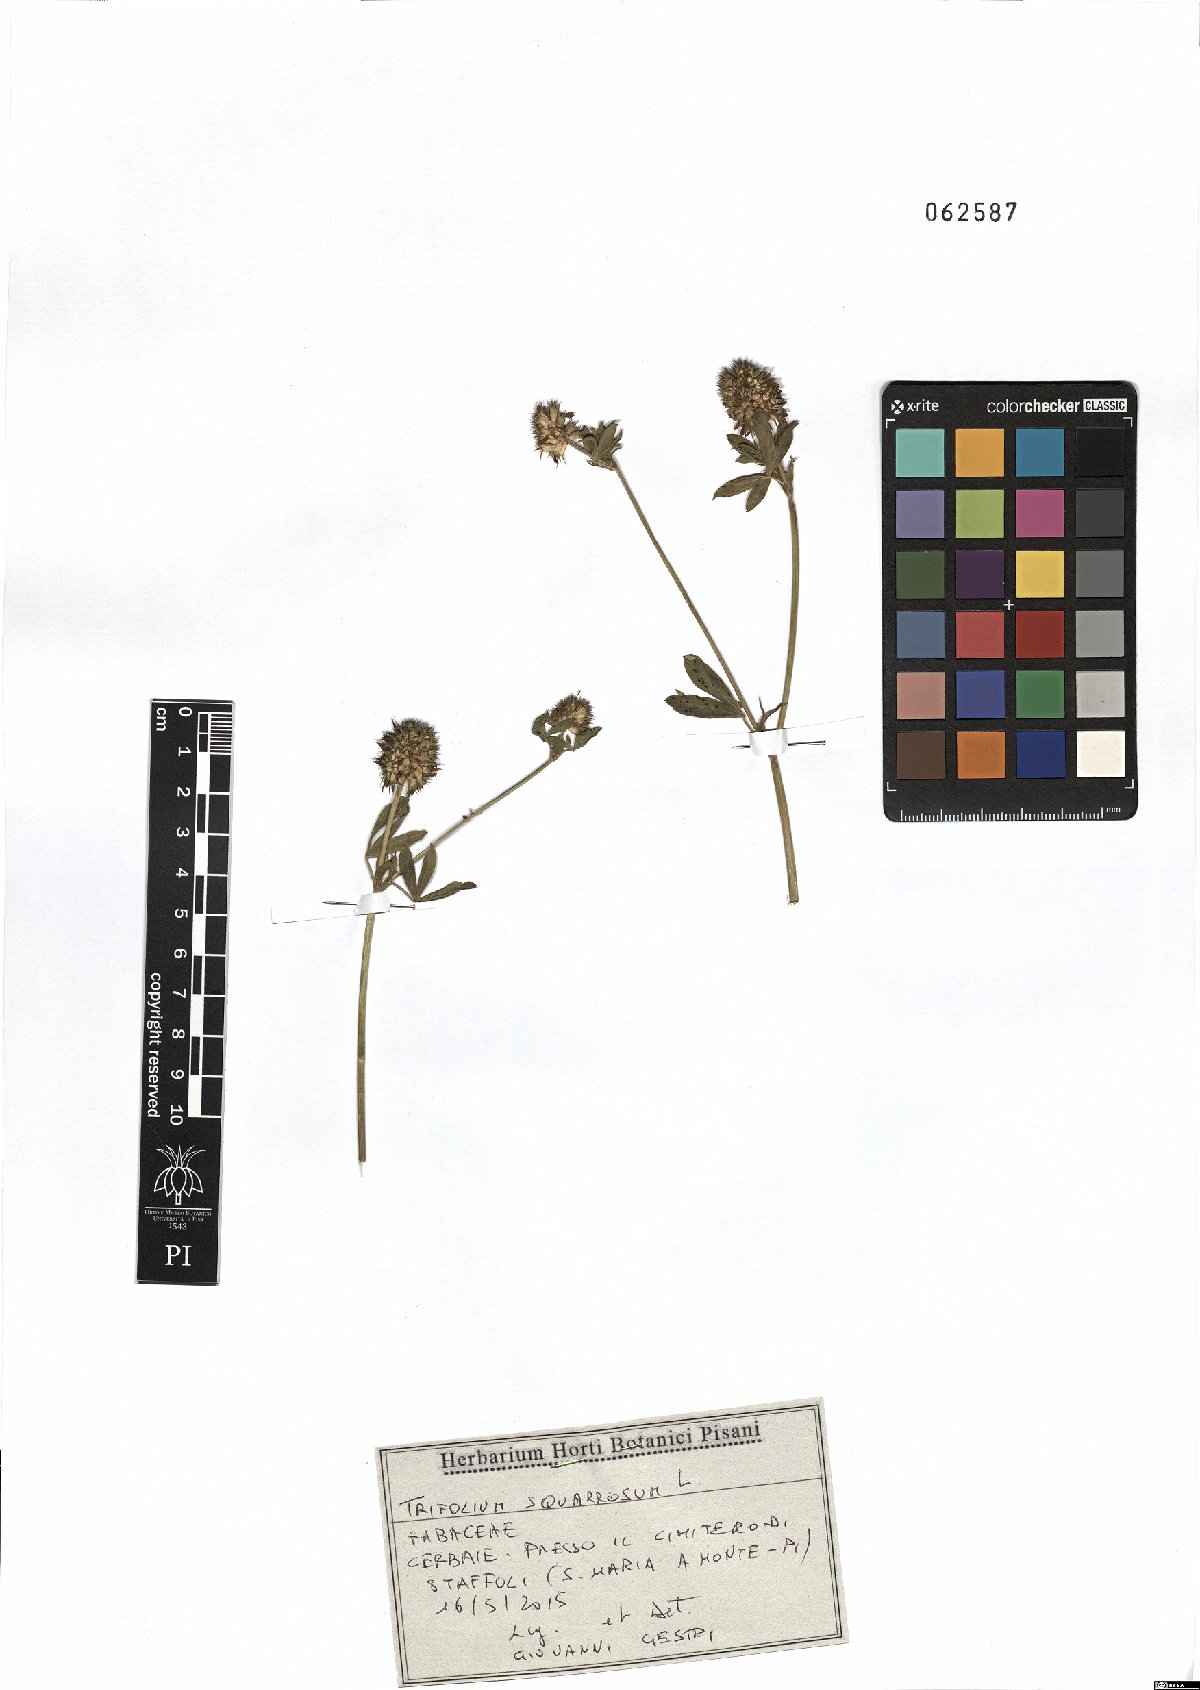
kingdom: Plantae
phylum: Tracheophyta
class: Magnoliopsida
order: Fabales
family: Fabaceae
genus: Trifolium
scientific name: Trifolium squarrosum
